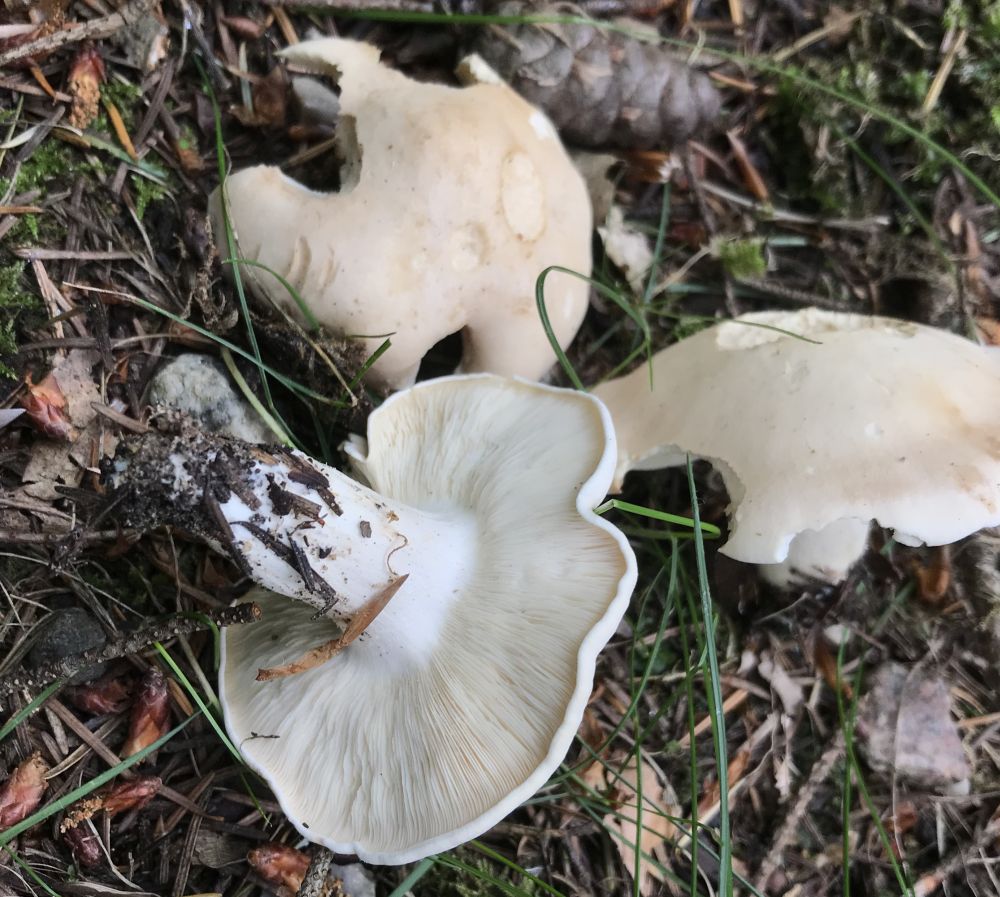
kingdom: Fungi
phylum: Basidiomycota
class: Agaricomycetes
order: Agaricales
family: Lyophyllaceae
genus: Calocybe
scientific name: Calocybe gambosa
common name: vårmusseron
